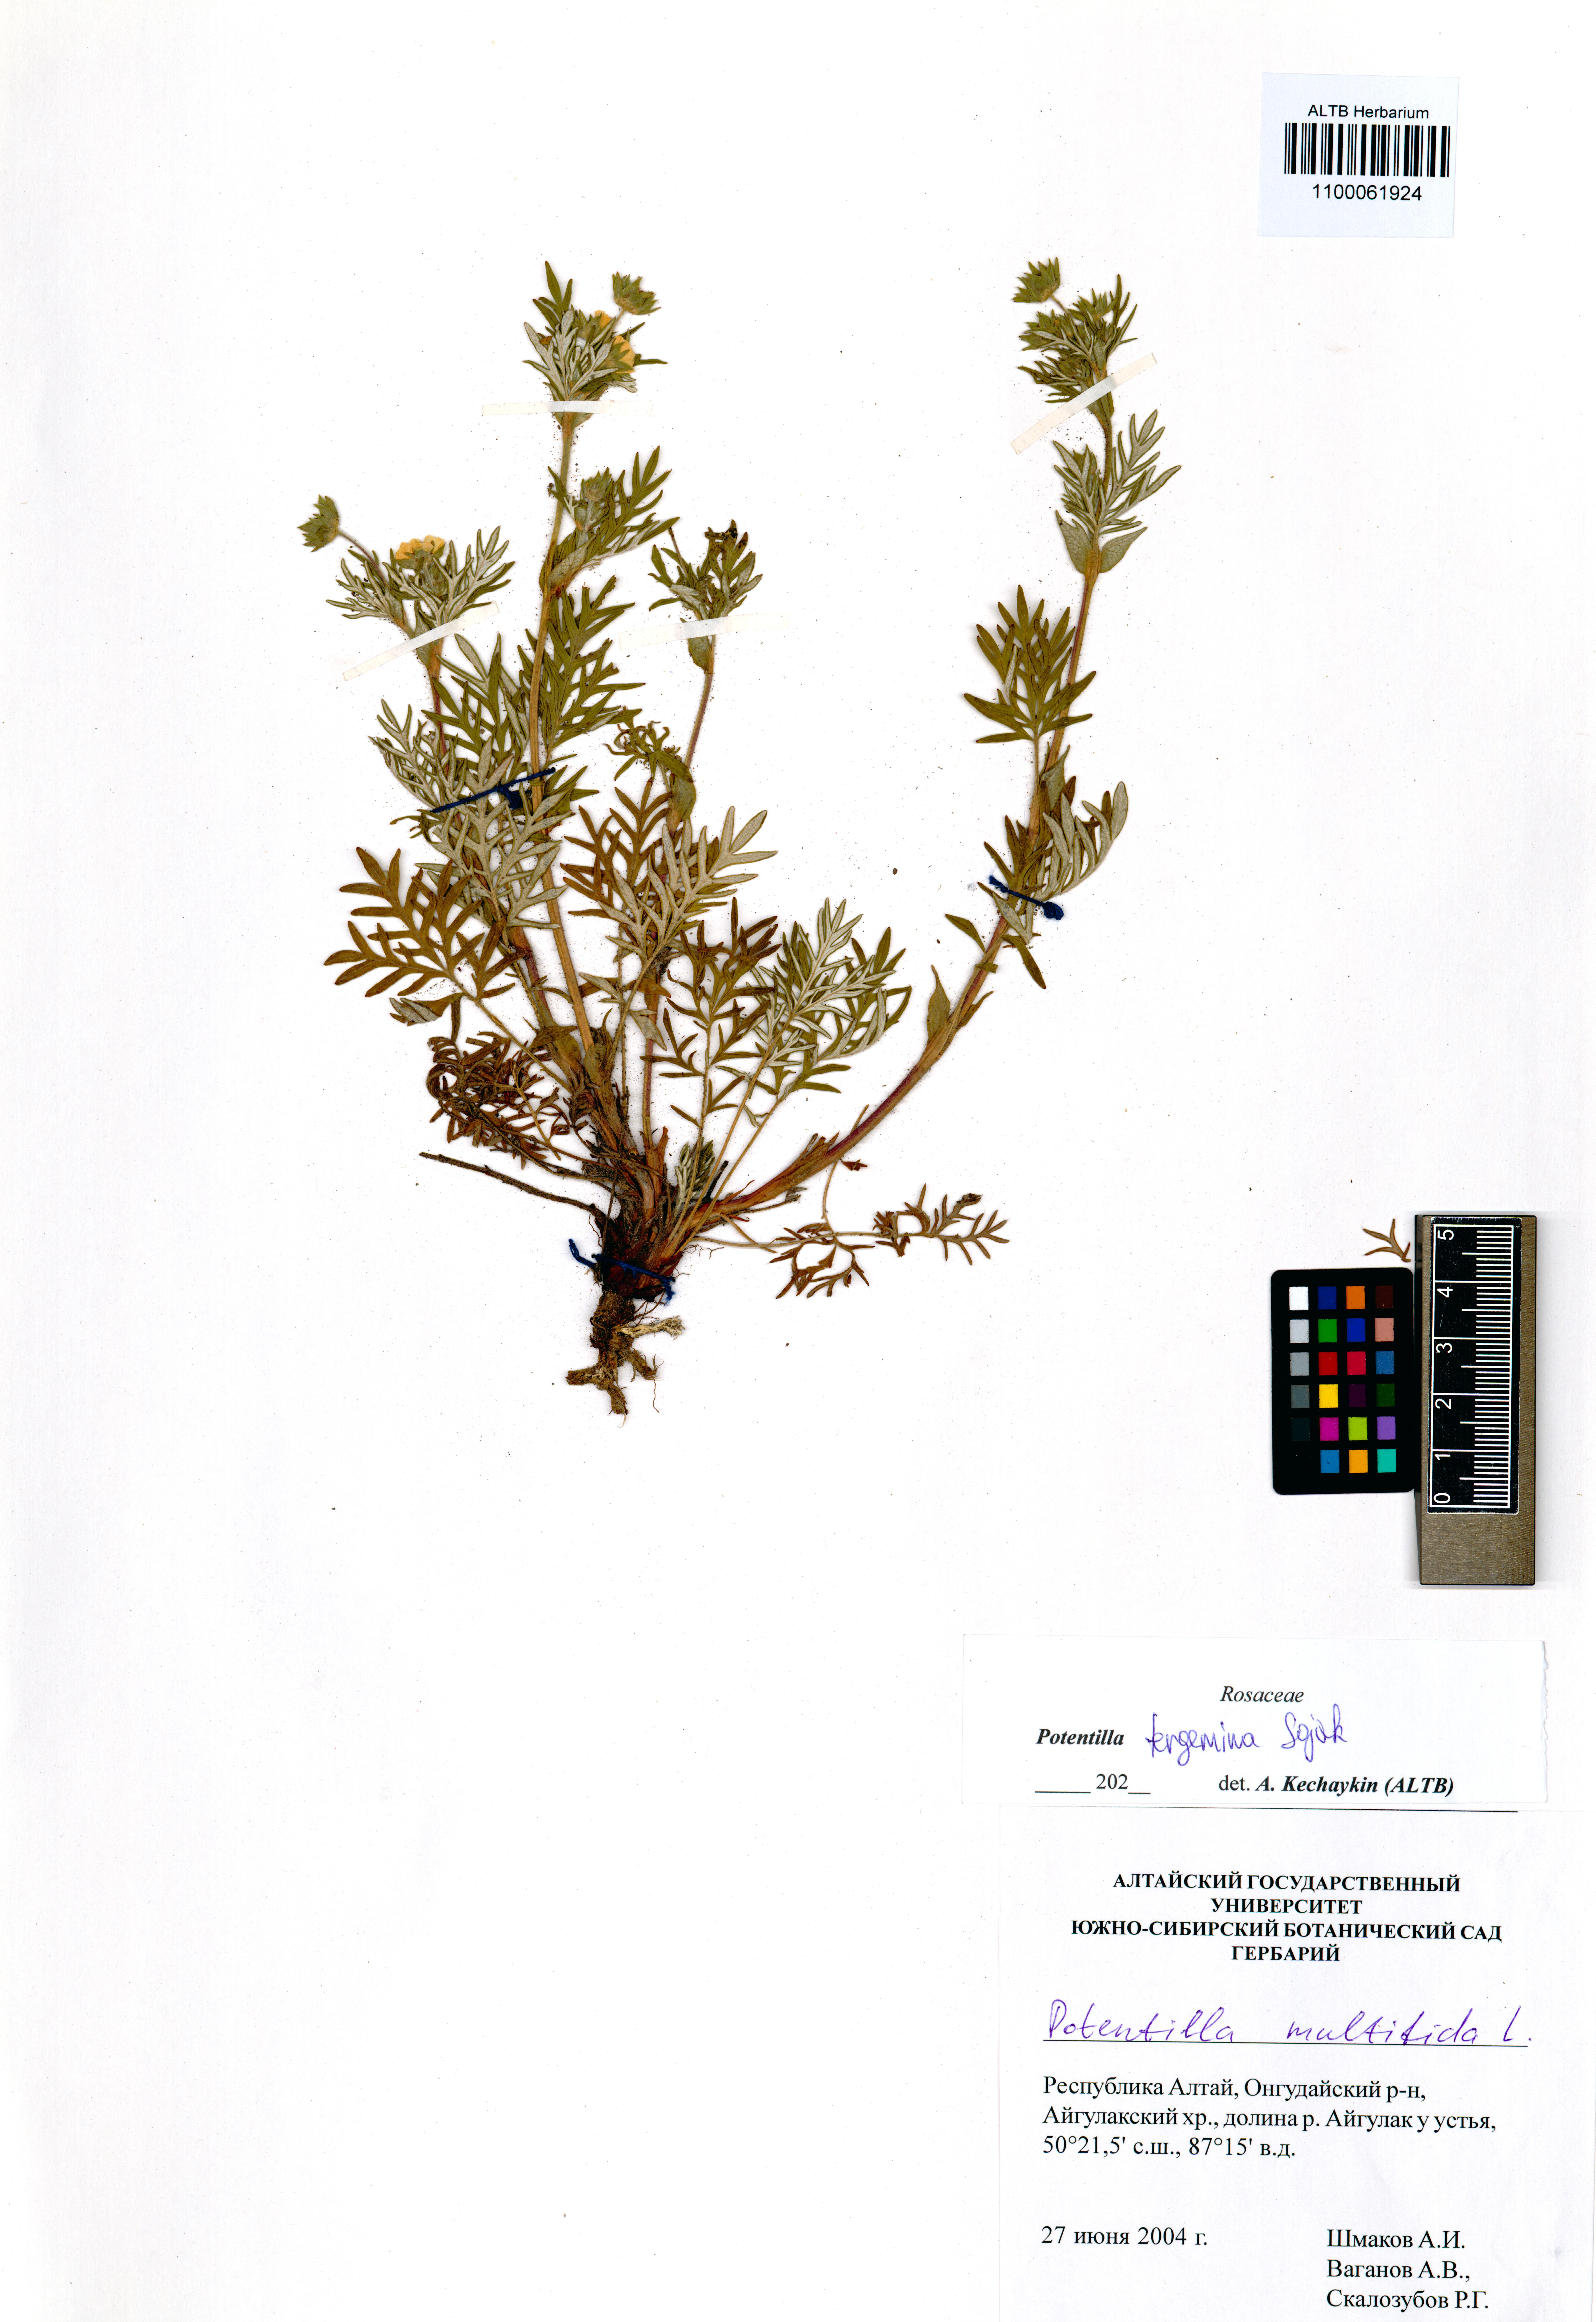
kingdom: Plantae
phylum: Tracheophyta
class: Magnoliopsida
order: Rosales
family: Rosaceae
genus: Potentilla
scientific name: Potentilla tergemina
